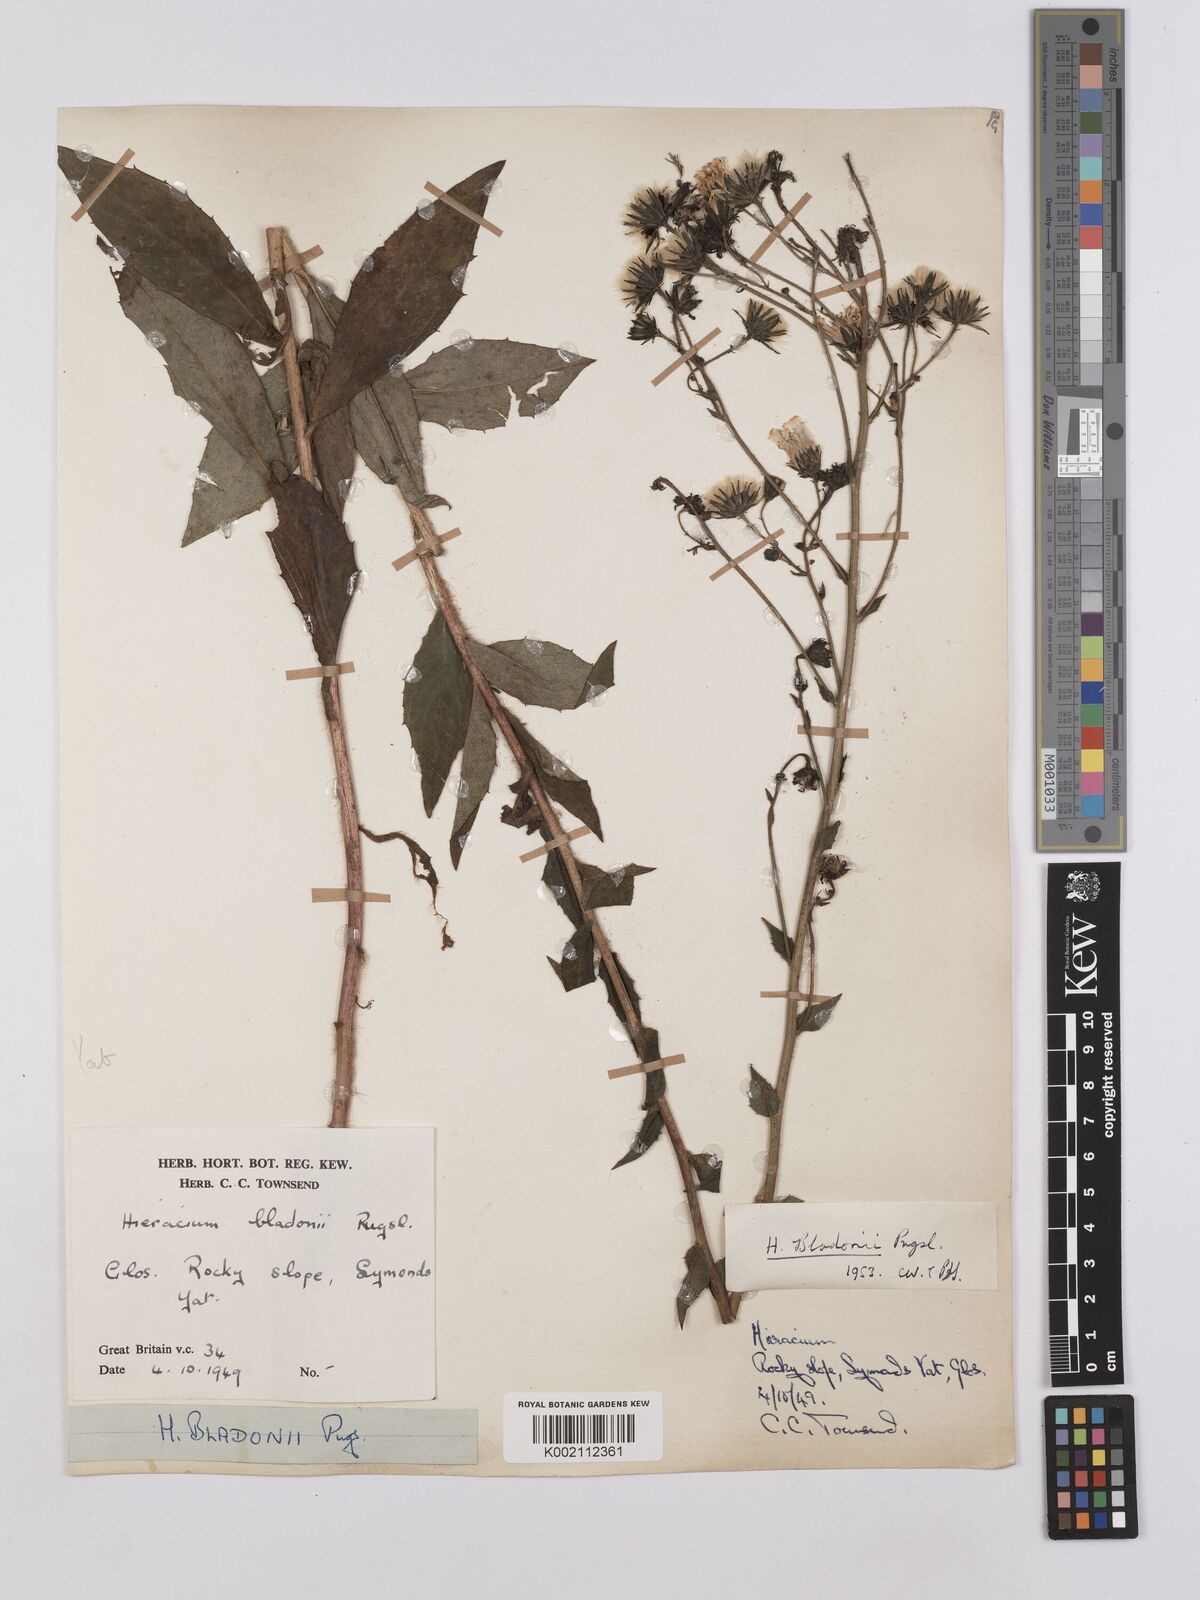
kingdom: Plantae
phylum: Tracheophyta
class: Magnoliopsida
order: Asterales
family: Asteraceae
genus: Hieracium
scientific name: Hieracium sabaudum
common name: New england hawkweed
